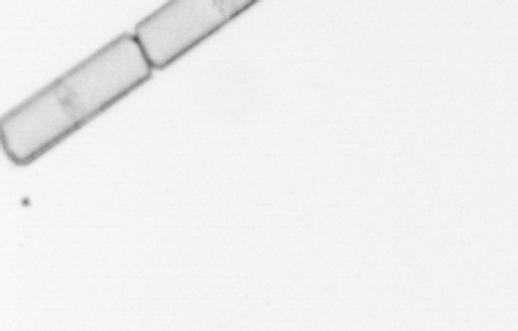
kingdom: Chromista
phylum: Ochrophyta
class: Bacillariophyceae
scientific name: Bacillariophyceae
